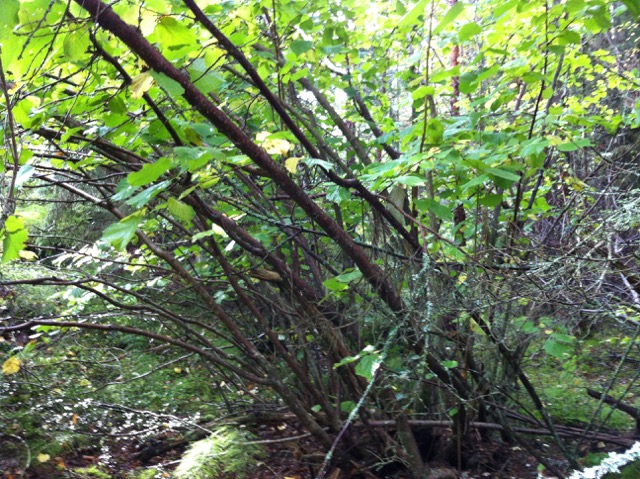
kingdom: Plantae
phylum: Tracheophyta
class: Magnoliopsida
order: Fagales
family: Betulaceae
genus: Corylus
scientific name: Corylus avellana
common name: European hazel
